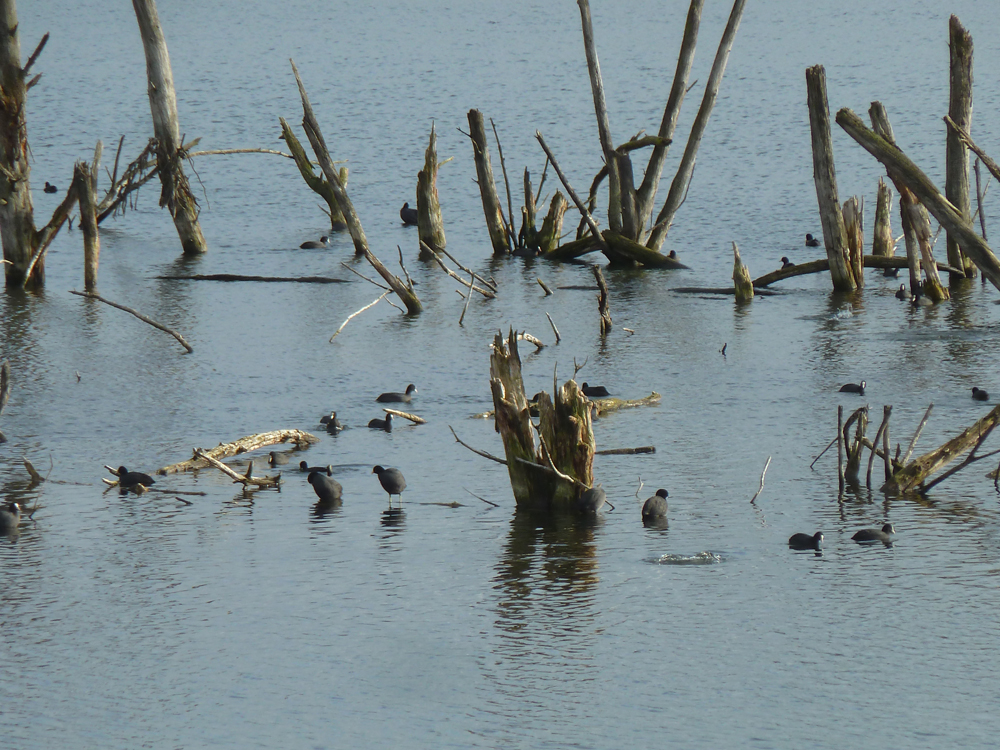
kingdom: Animalia
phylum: Chordata
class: Aves
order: Gruiformes
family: Rallidae
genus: Fulica
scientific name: Fulica atra
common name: Eurasian coot
